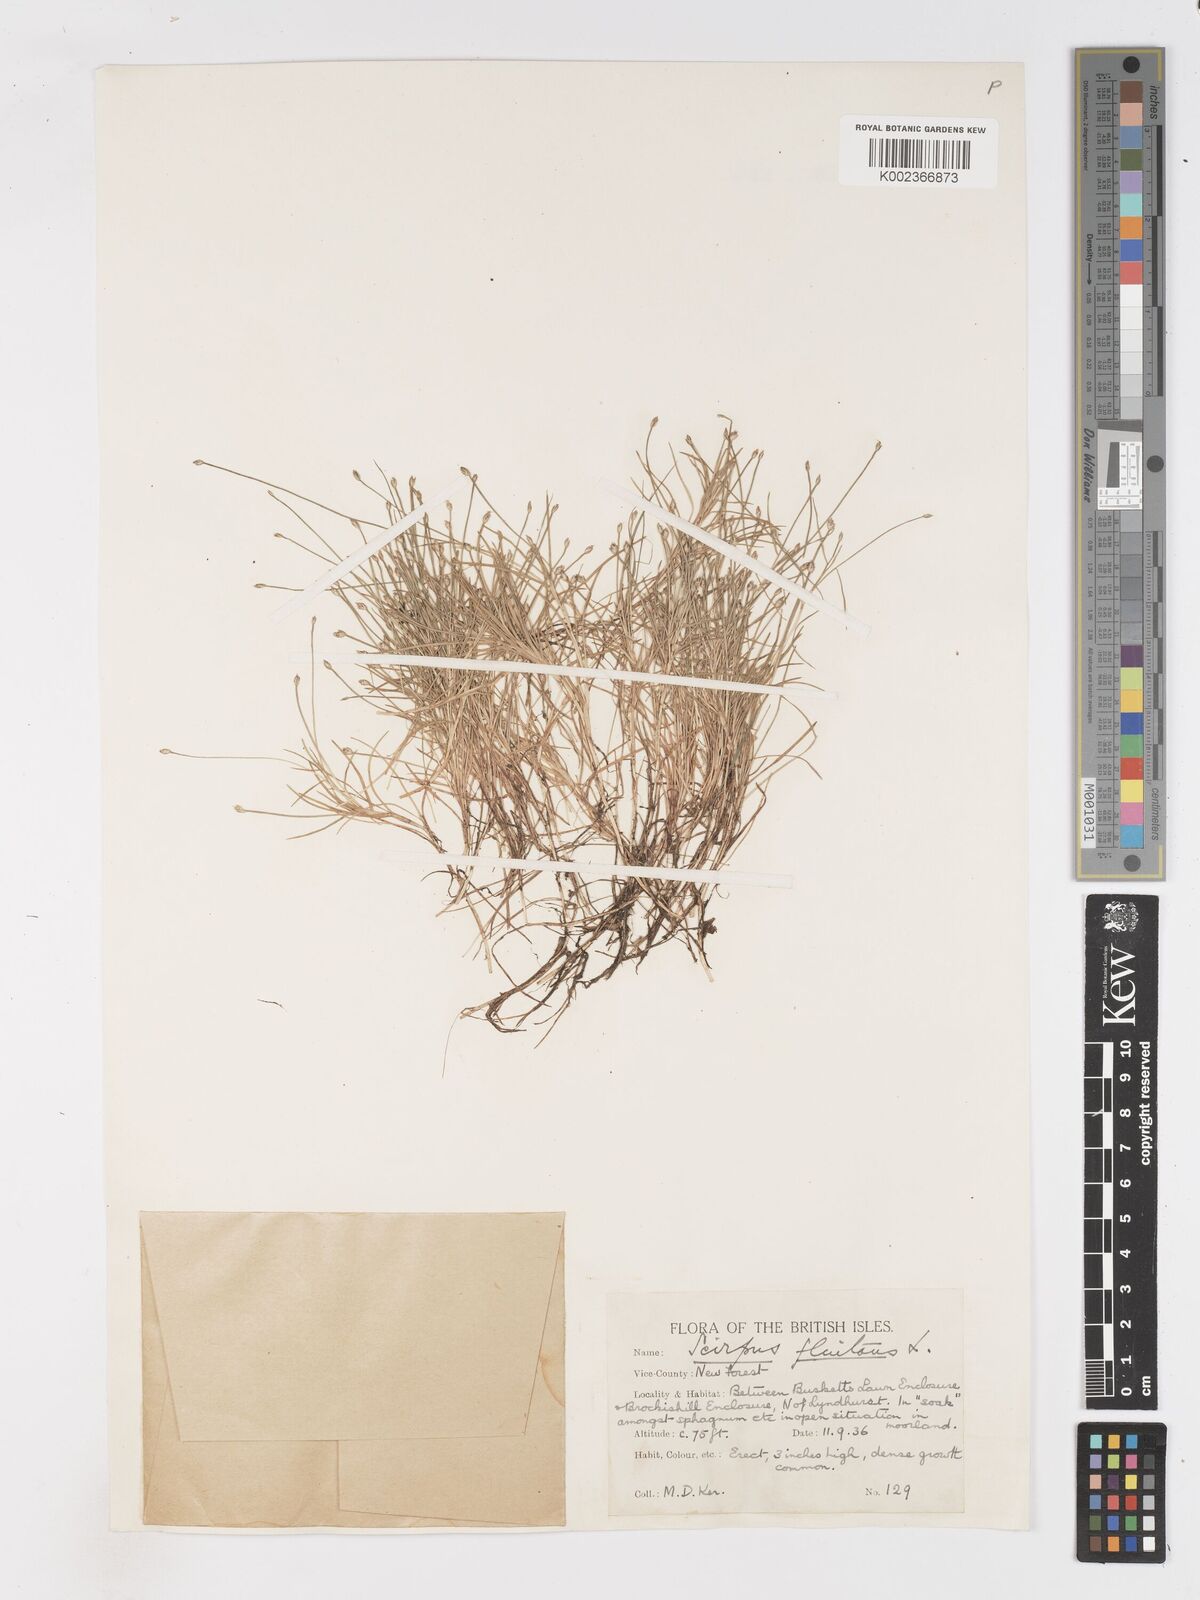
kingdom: Plantae
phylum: Tracheophyta
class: Liliopsida
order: Poales
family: Cyperaceae
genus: Isolepis
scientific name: Isolepis fluitans
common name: Floating club-rush
